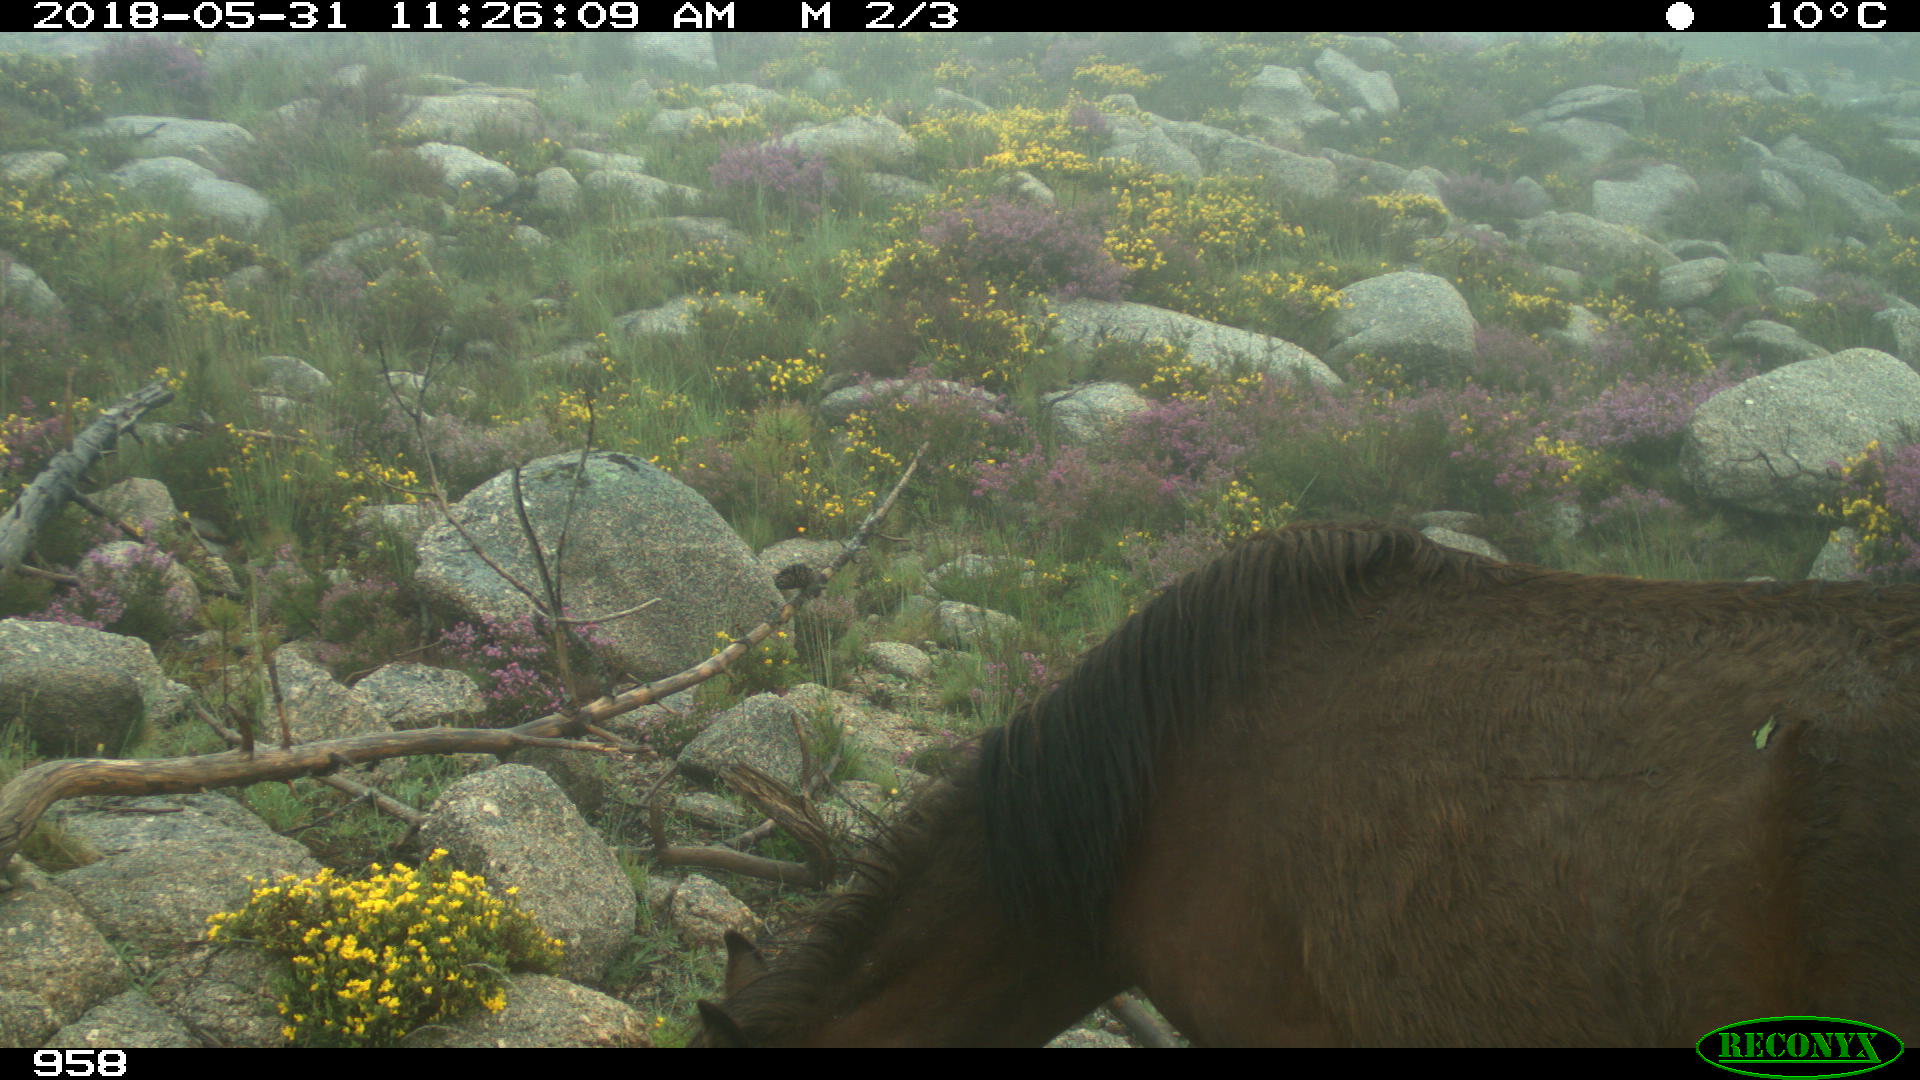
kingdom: Animalia
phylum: Chordata
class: Mammalia
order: Perissodactyla
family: Equidae
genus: Equus
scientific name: Equus caballus
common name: Horse
